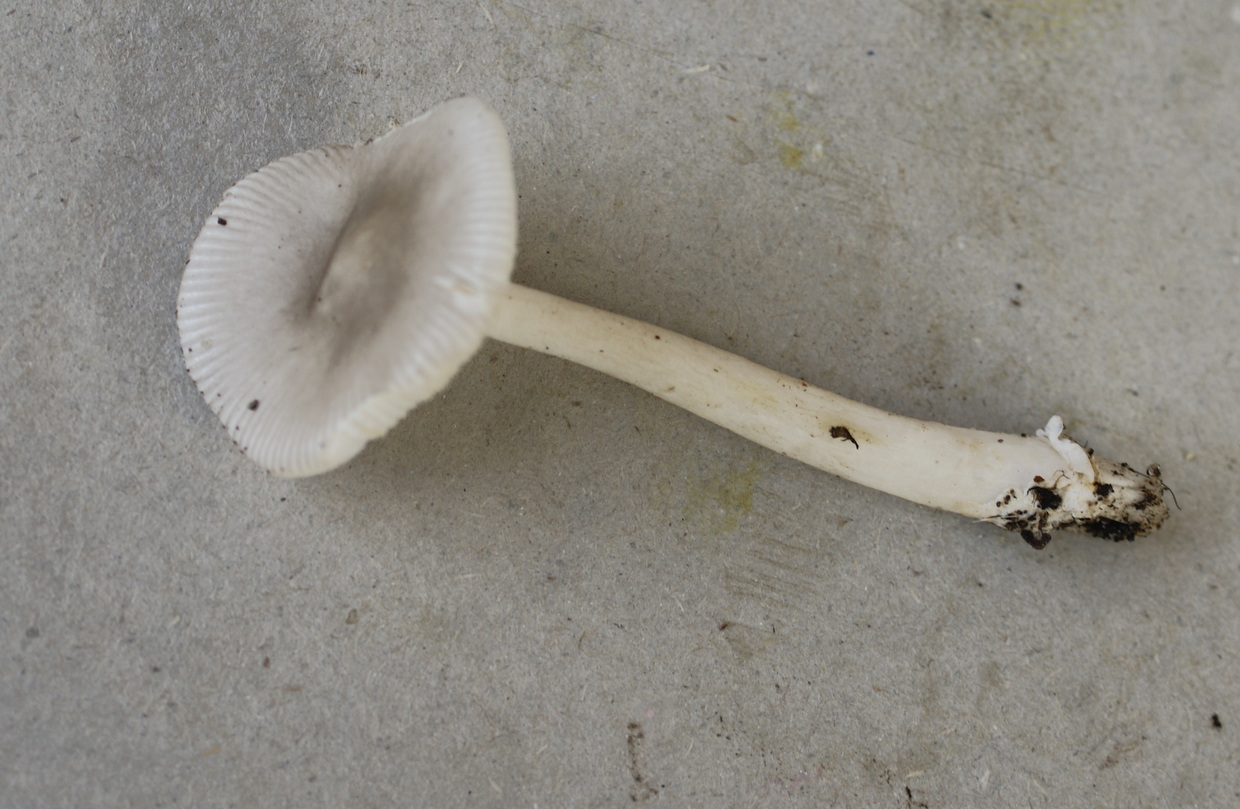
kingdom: Fungi
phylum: Basidiomycota
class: Agaricomycetes
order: Agaricales
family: Amanitaceae
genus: Amanita
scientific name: Amanita vaginata
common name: grå kam-fluesvamp
